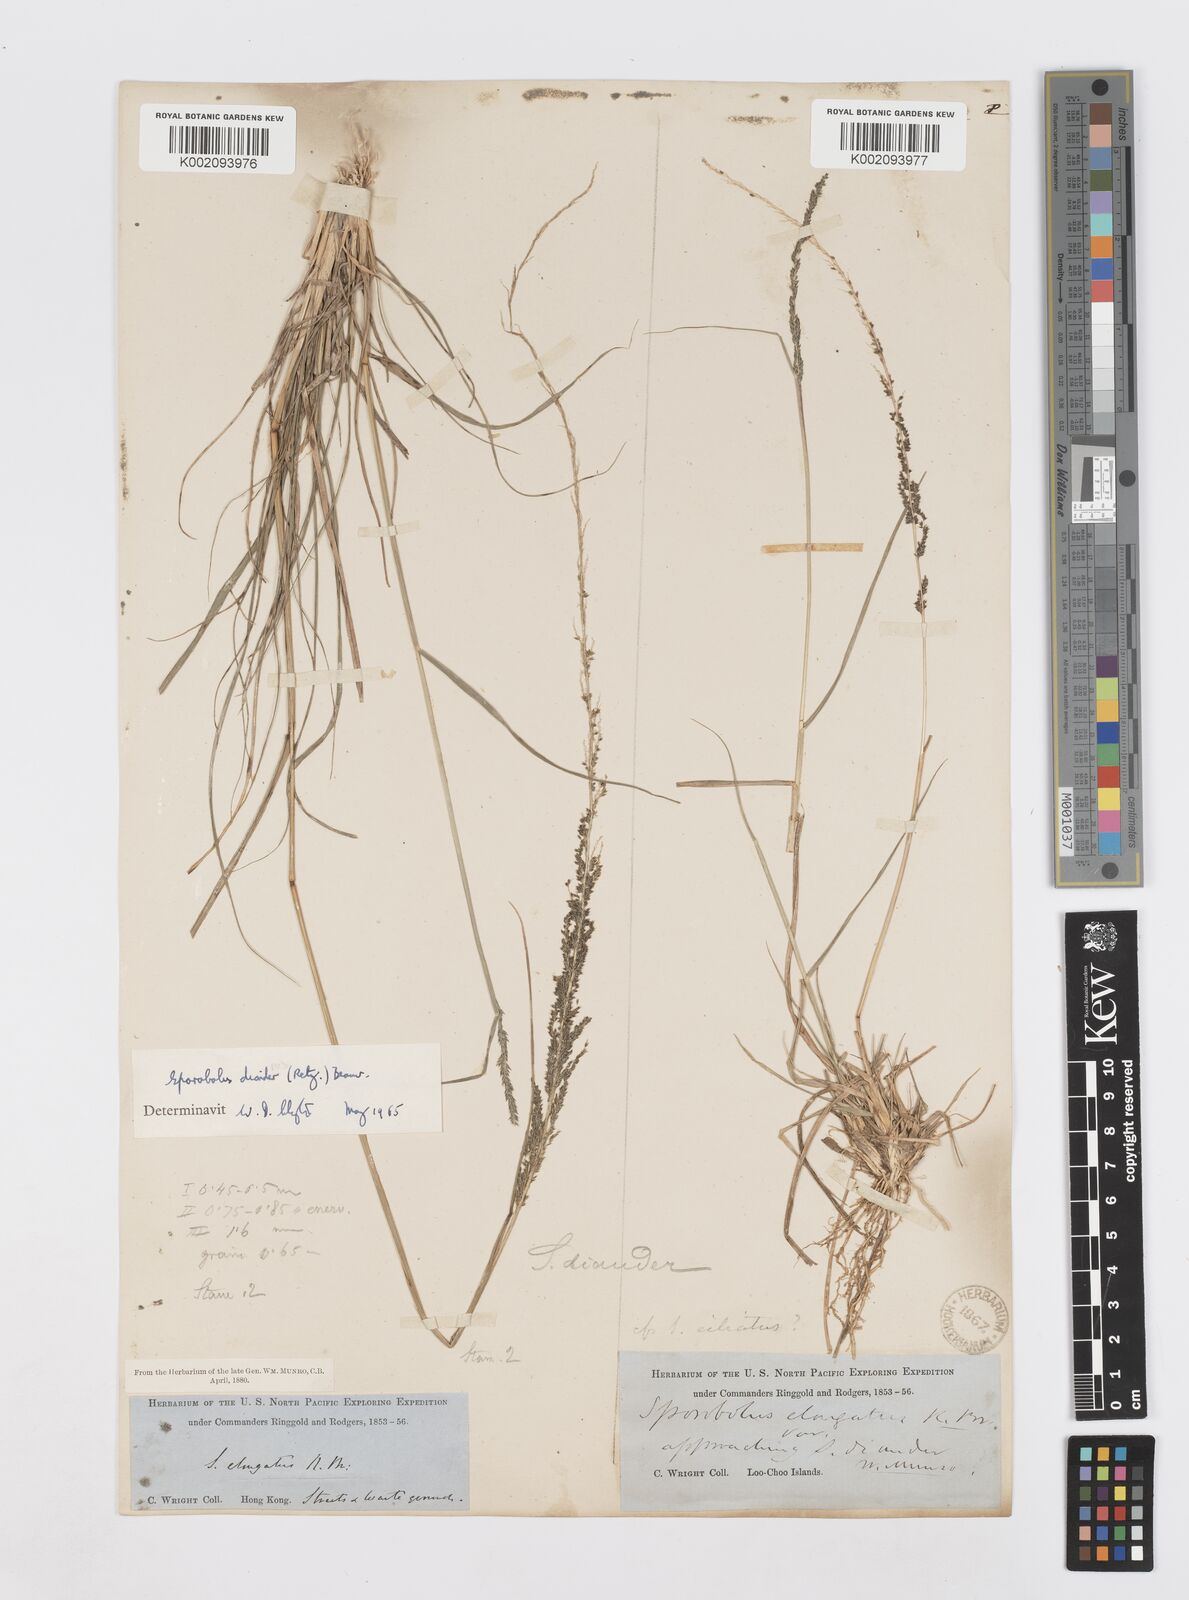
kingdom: Plantae
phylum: Tracheophyta
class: Liliopsida
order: Poales
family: Poaceae
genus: Sporobolus
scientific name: Sporobolus diandrus
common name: Tussock dropseed
